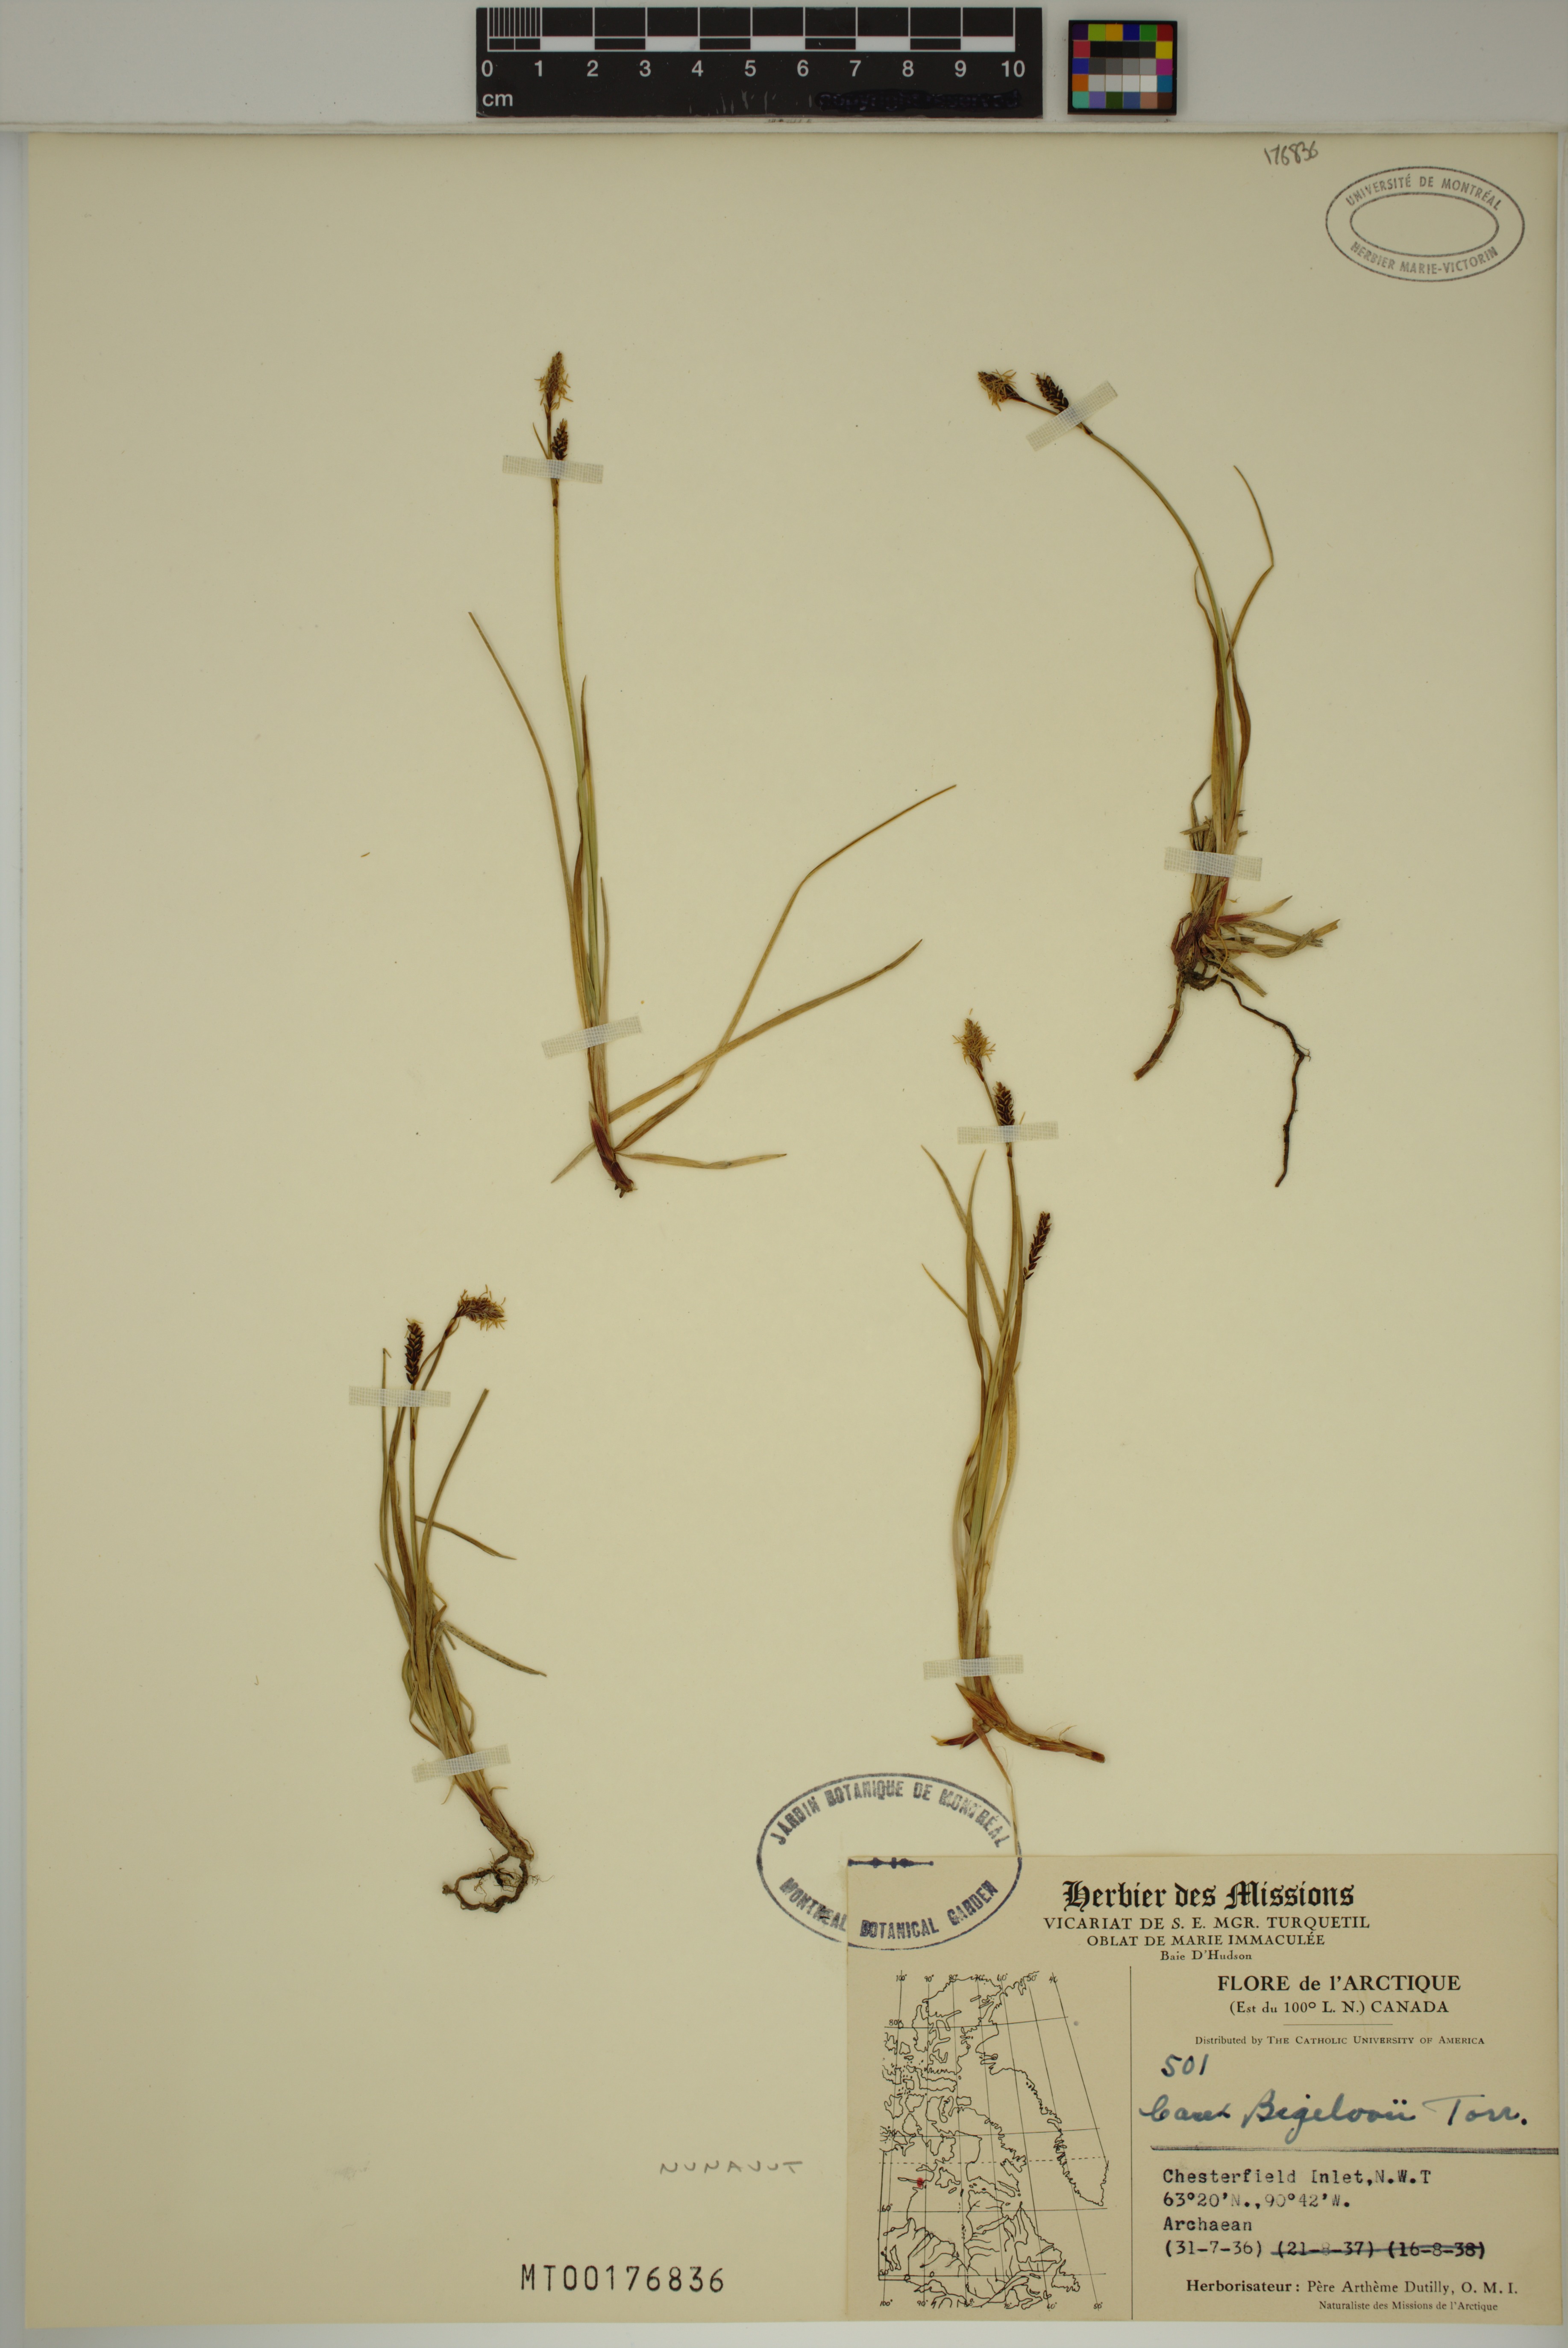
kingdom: Plantae
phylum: Tracheophyta
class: Liliopsida
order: Poales
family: Cyperaceae
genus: Carex
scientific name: Carex bigelowii
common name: Stiff sedge
